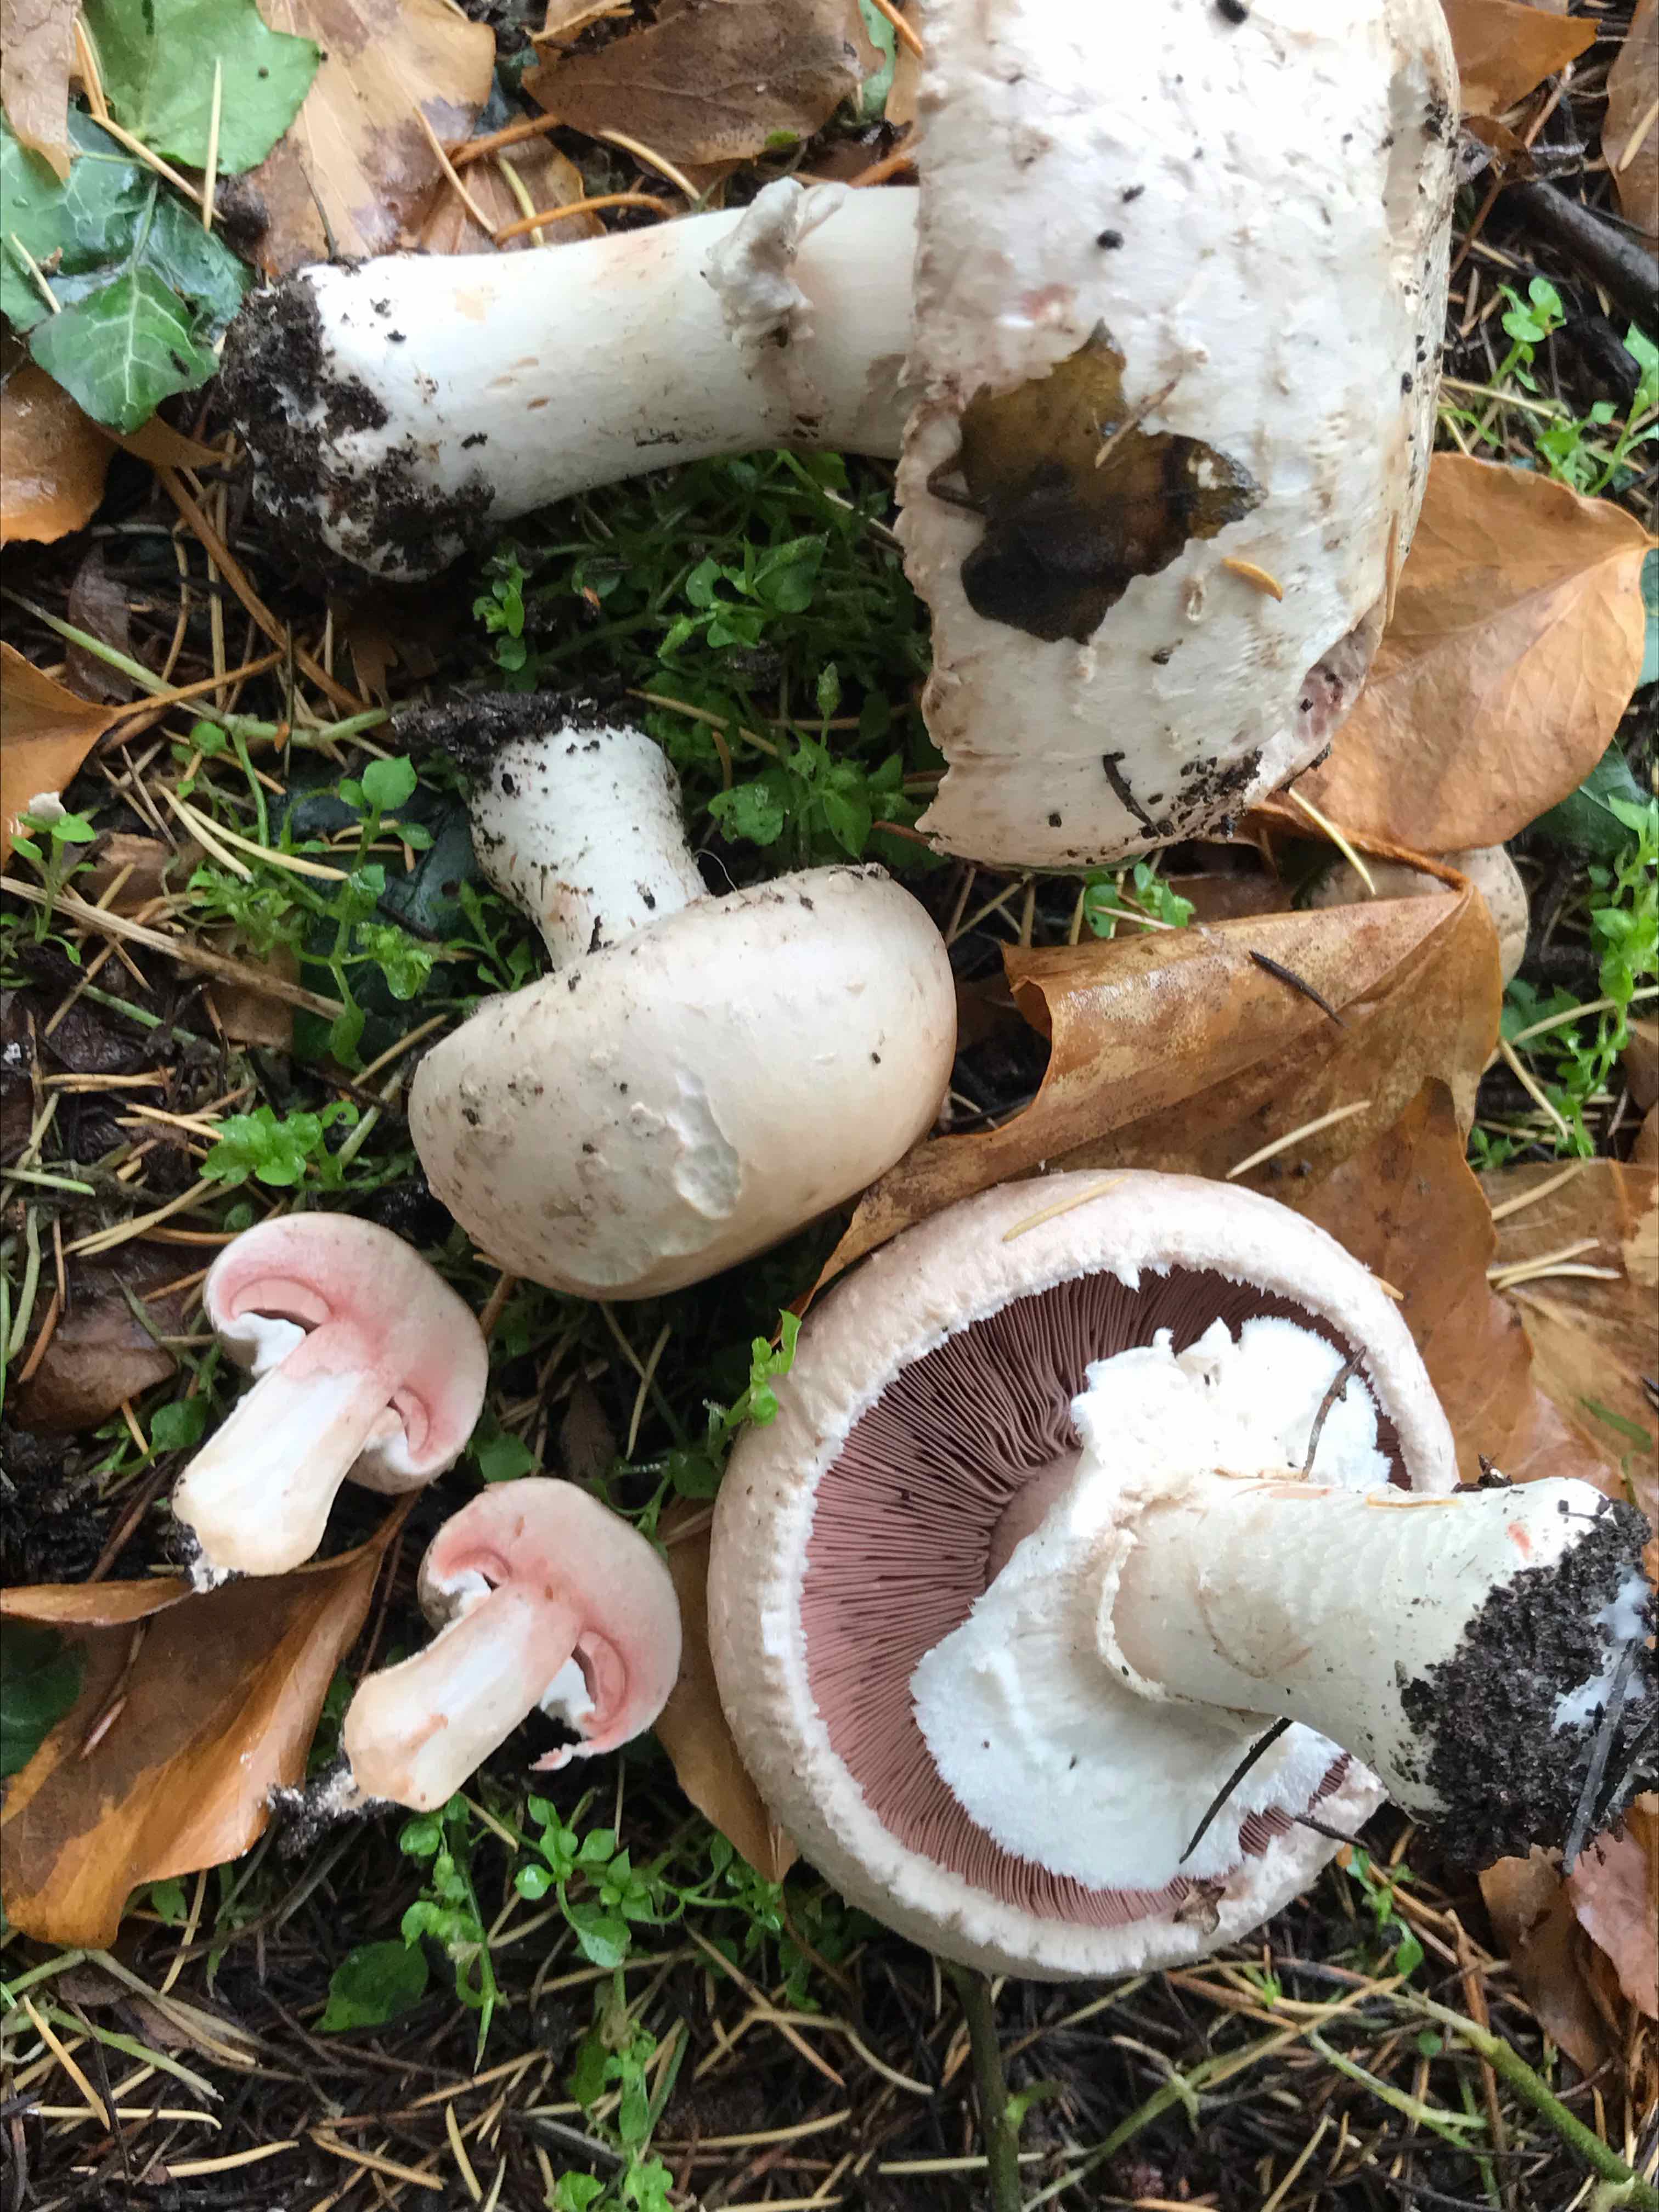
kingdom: Fungi
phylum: Basidiomycota
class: Agaricomycetes
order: Agaricales
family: Agaricaceae
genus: Agaricus
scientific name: Agaricus
